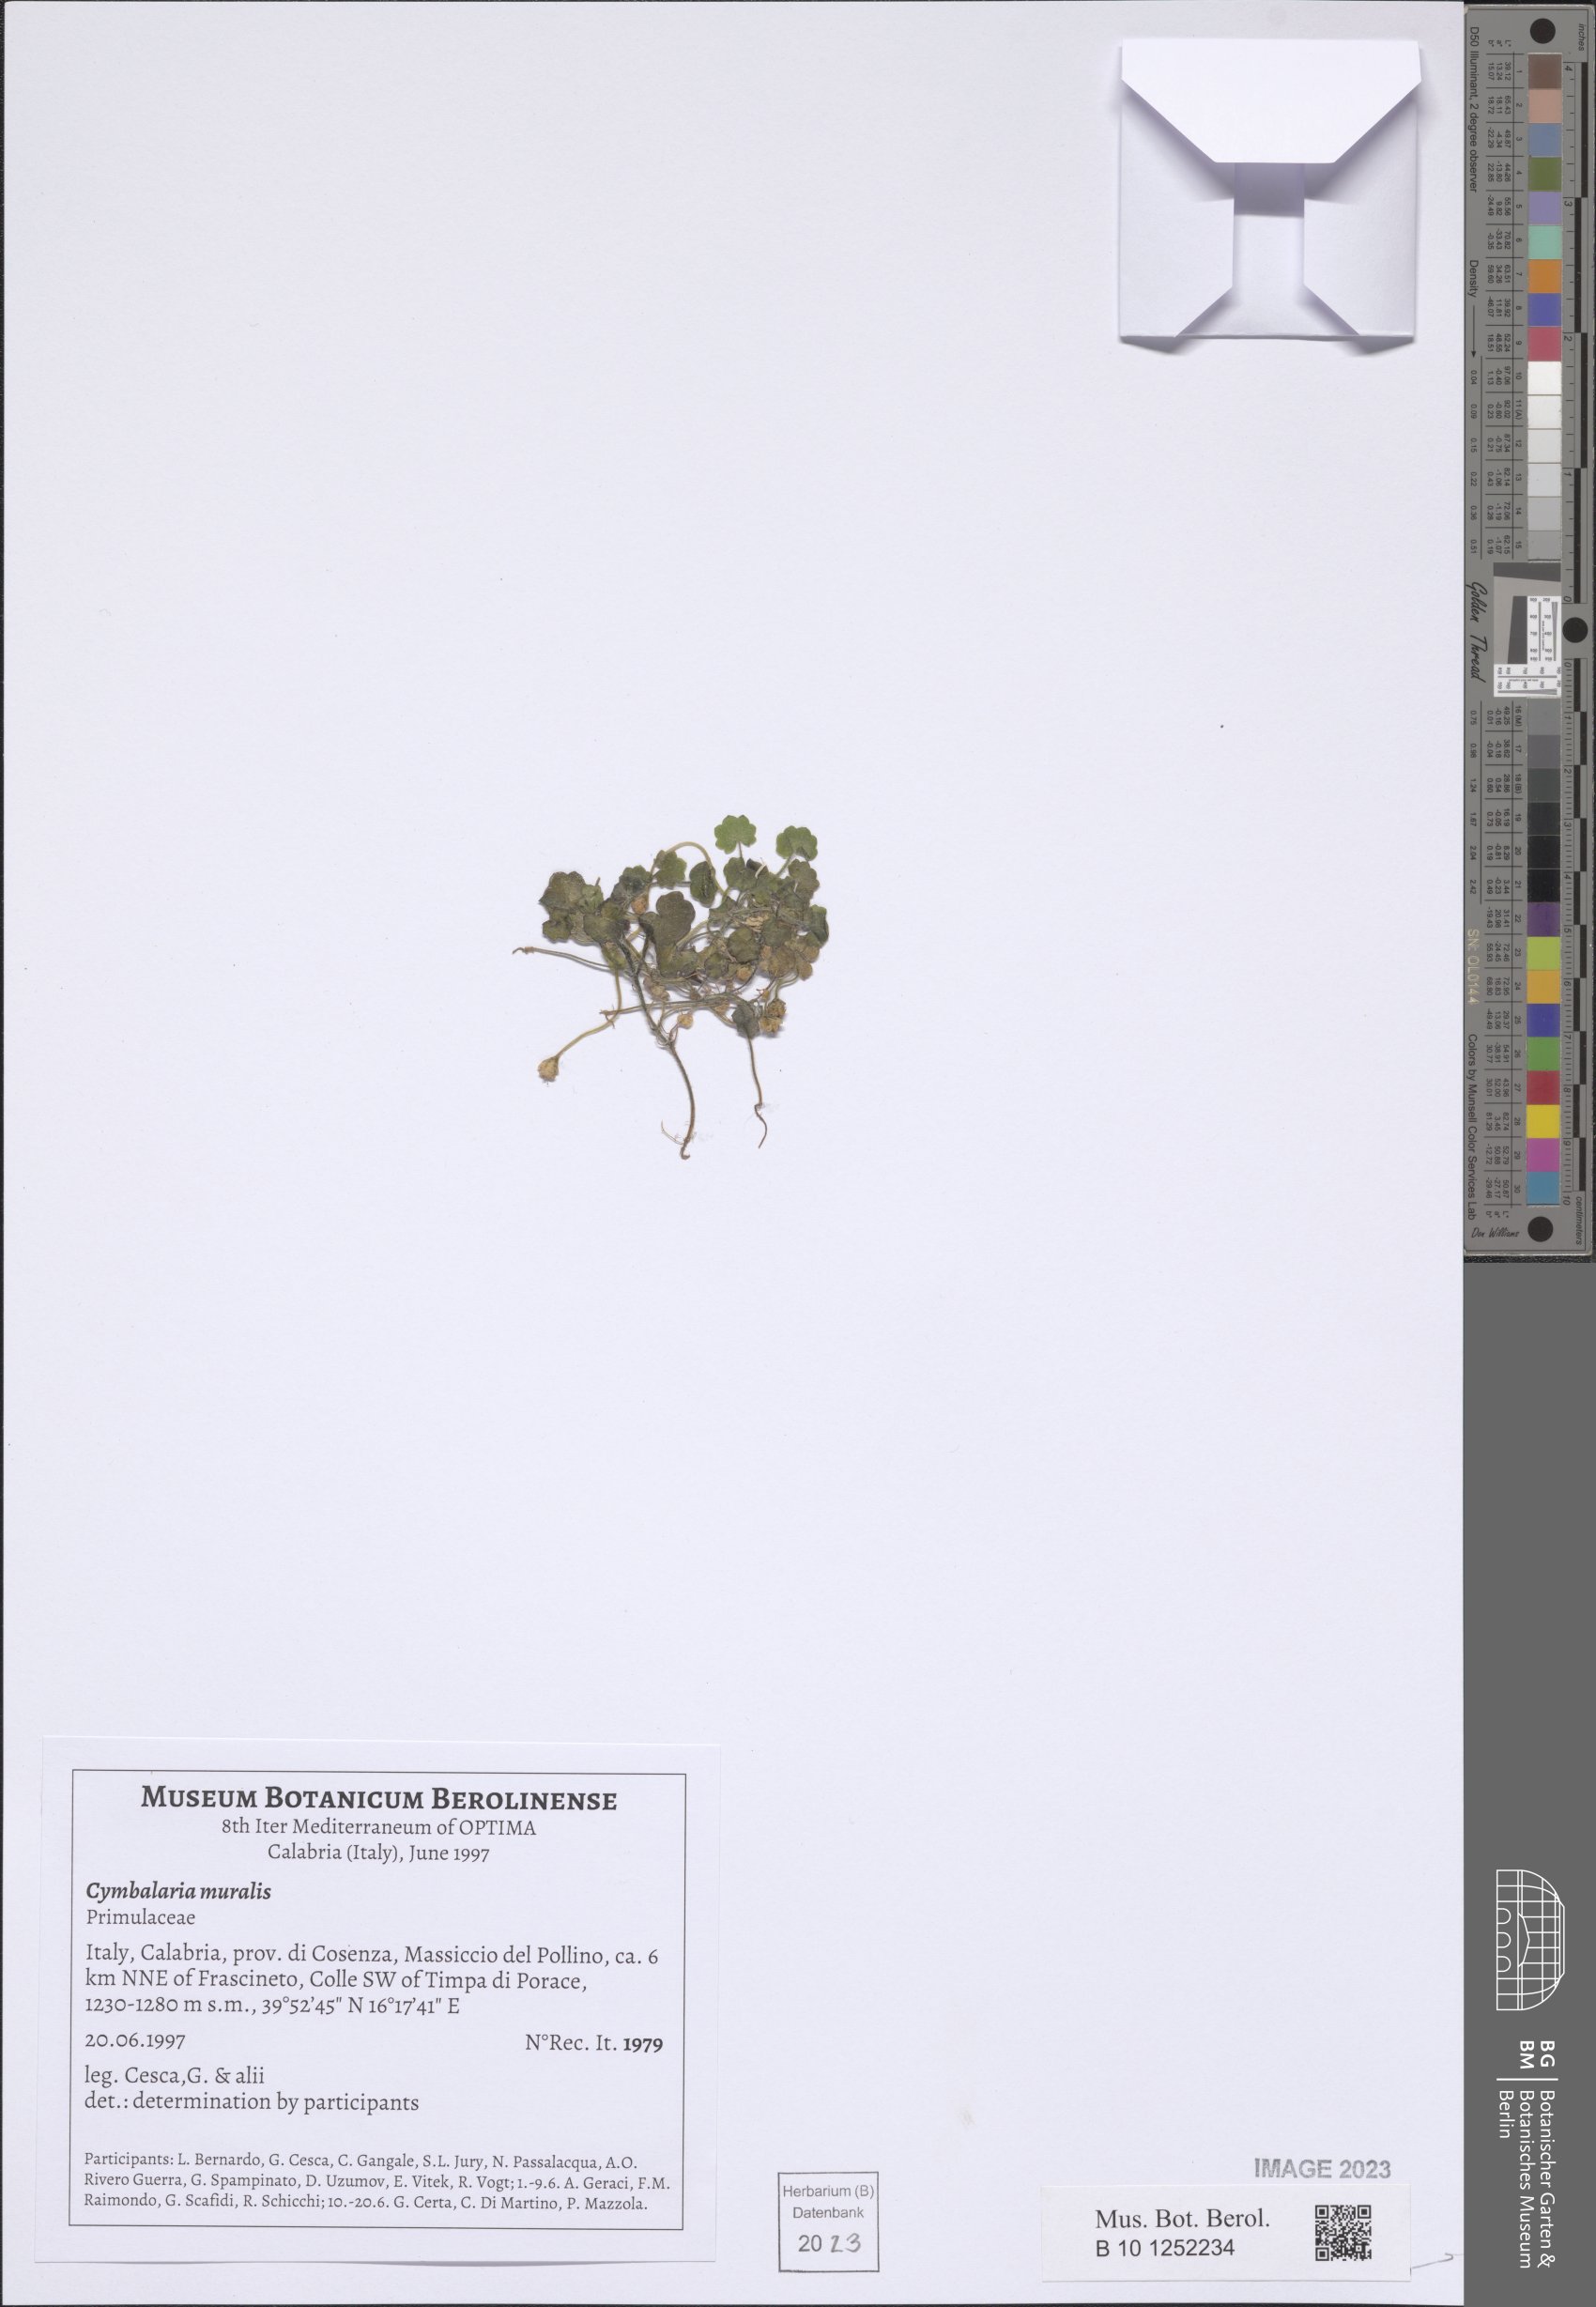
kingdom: Plantae
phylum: Tracheophyta
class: Magnoliopsida
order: Lamiales
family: Plantaginaceae
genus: Cymbalaria
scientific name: Cymbalaria muralis
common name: Ivy-leaved toadflax
